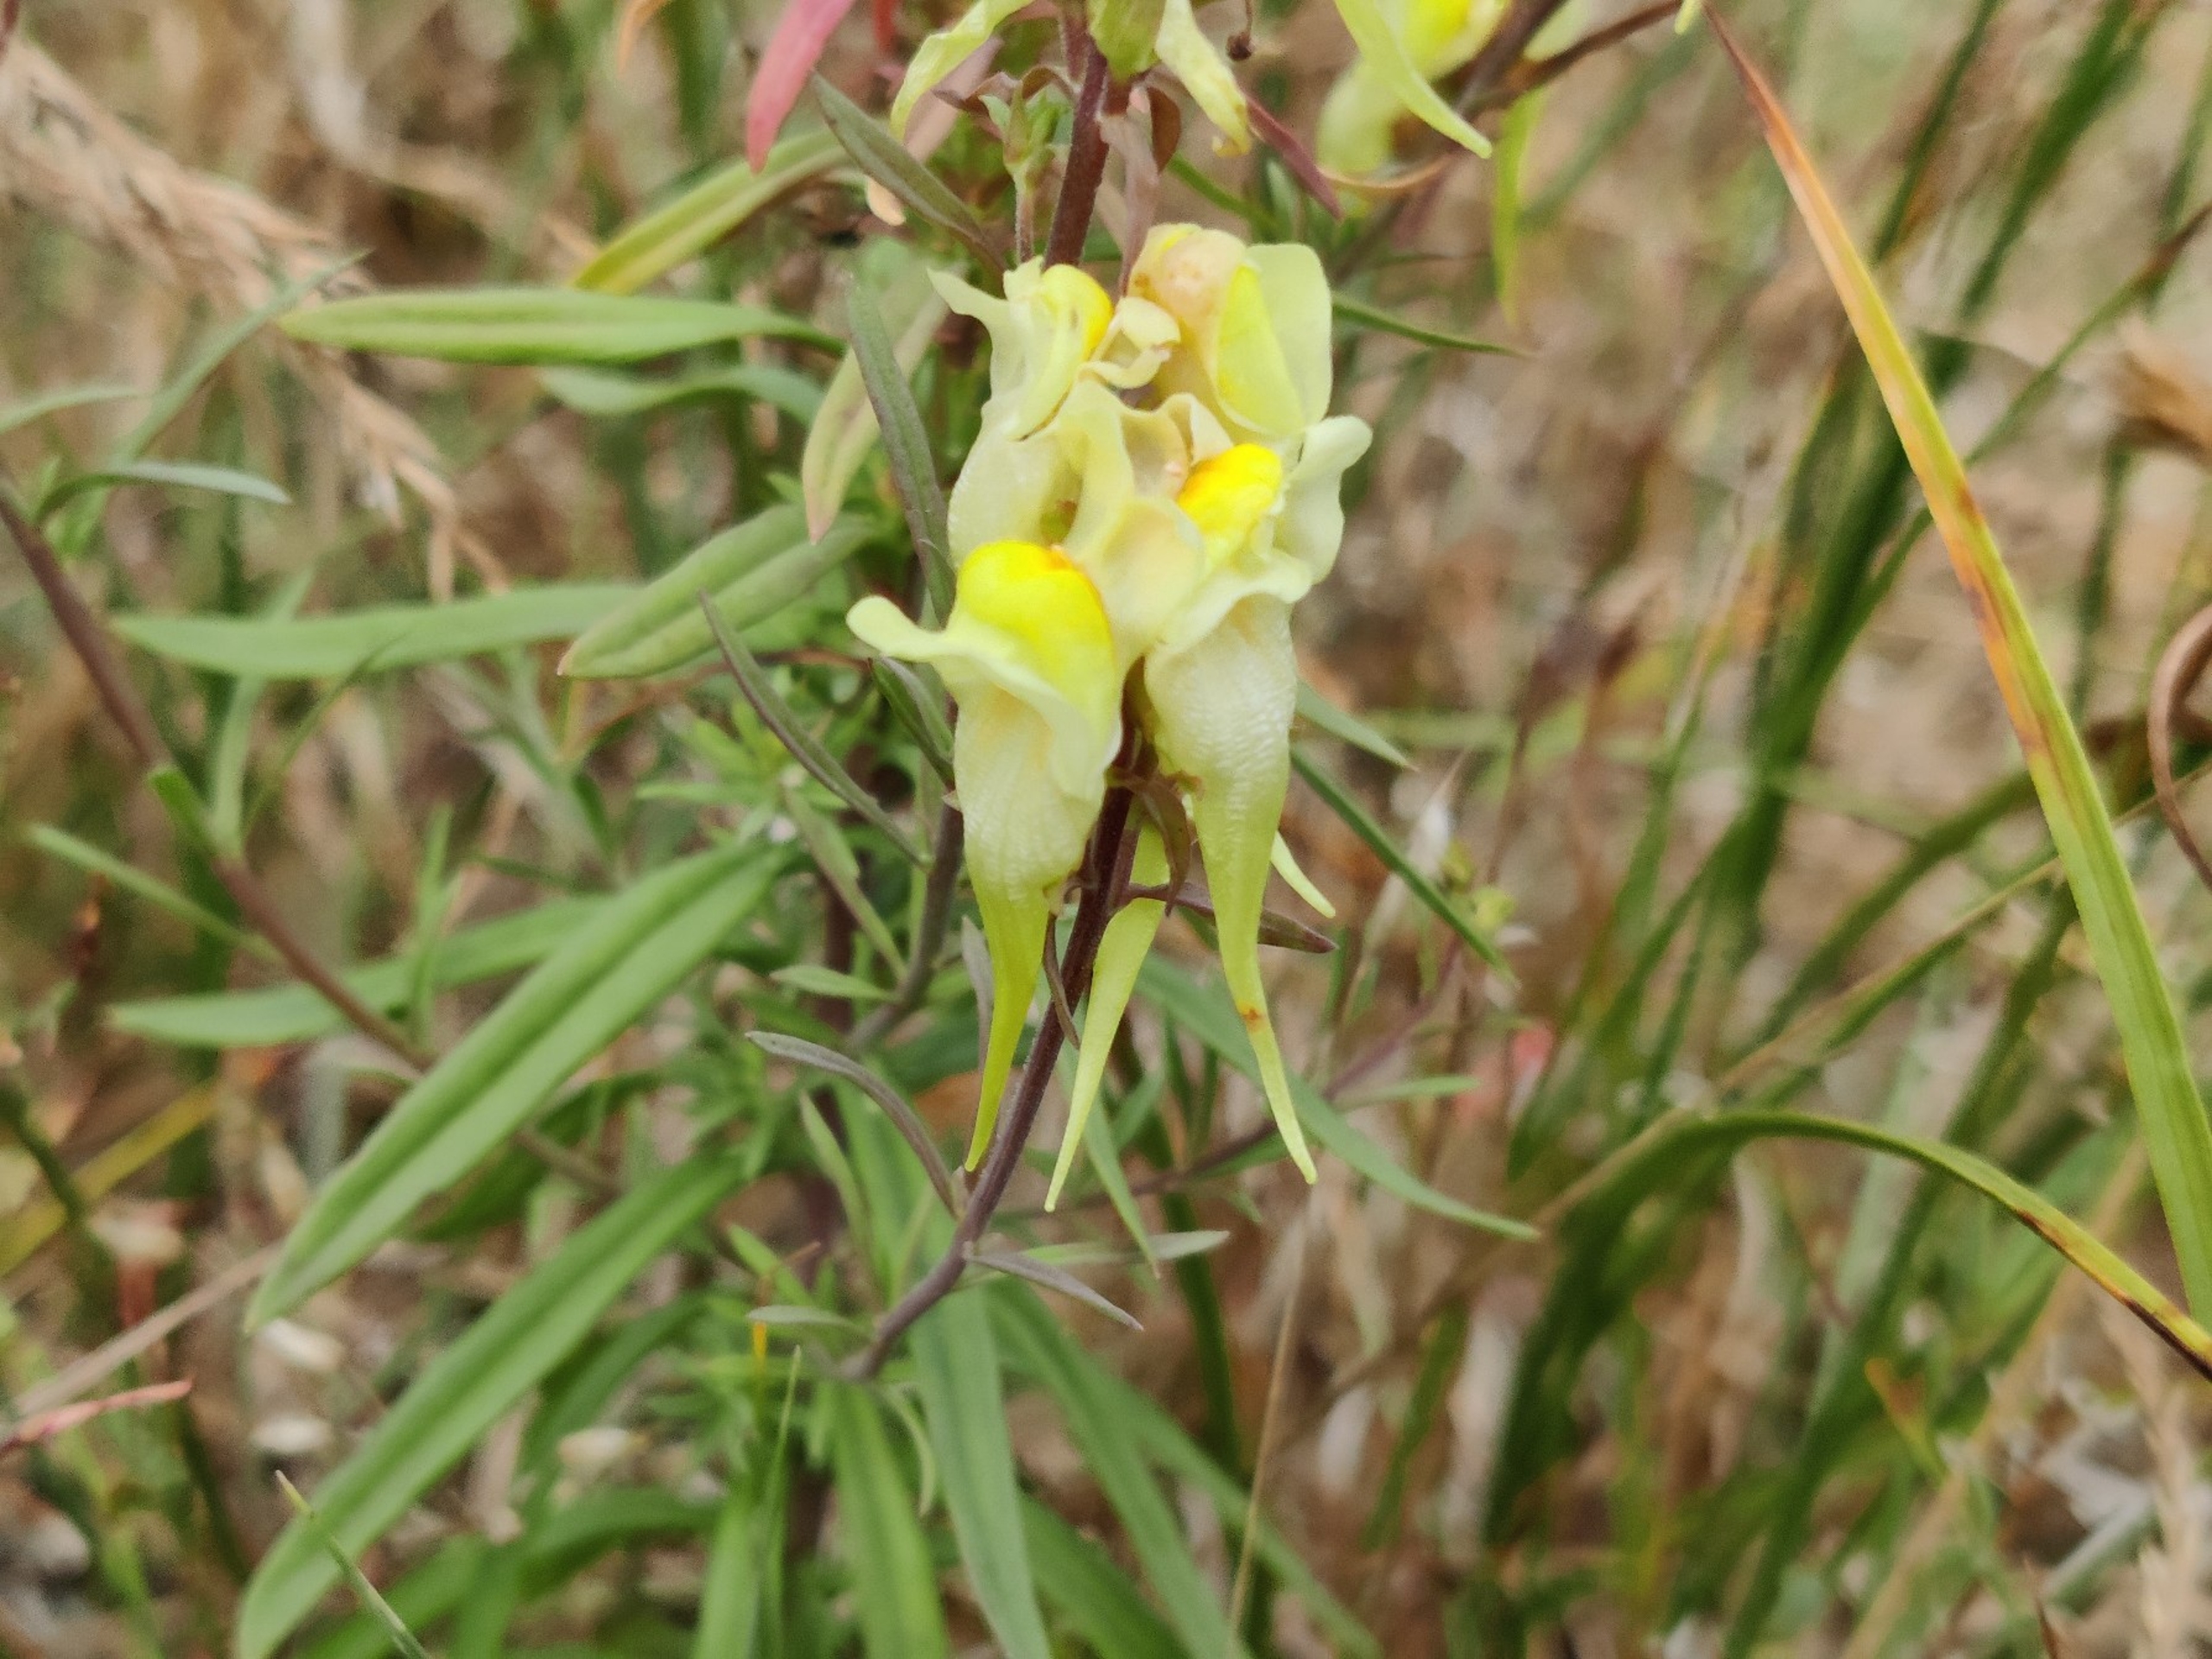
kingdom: Plantae
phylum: Tracheophyta
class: Magnoliopsida
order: Lamiales
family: Plantaginaceae
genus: Linaria
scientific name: Linaria vulgaris
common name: Almindelig torskemund
